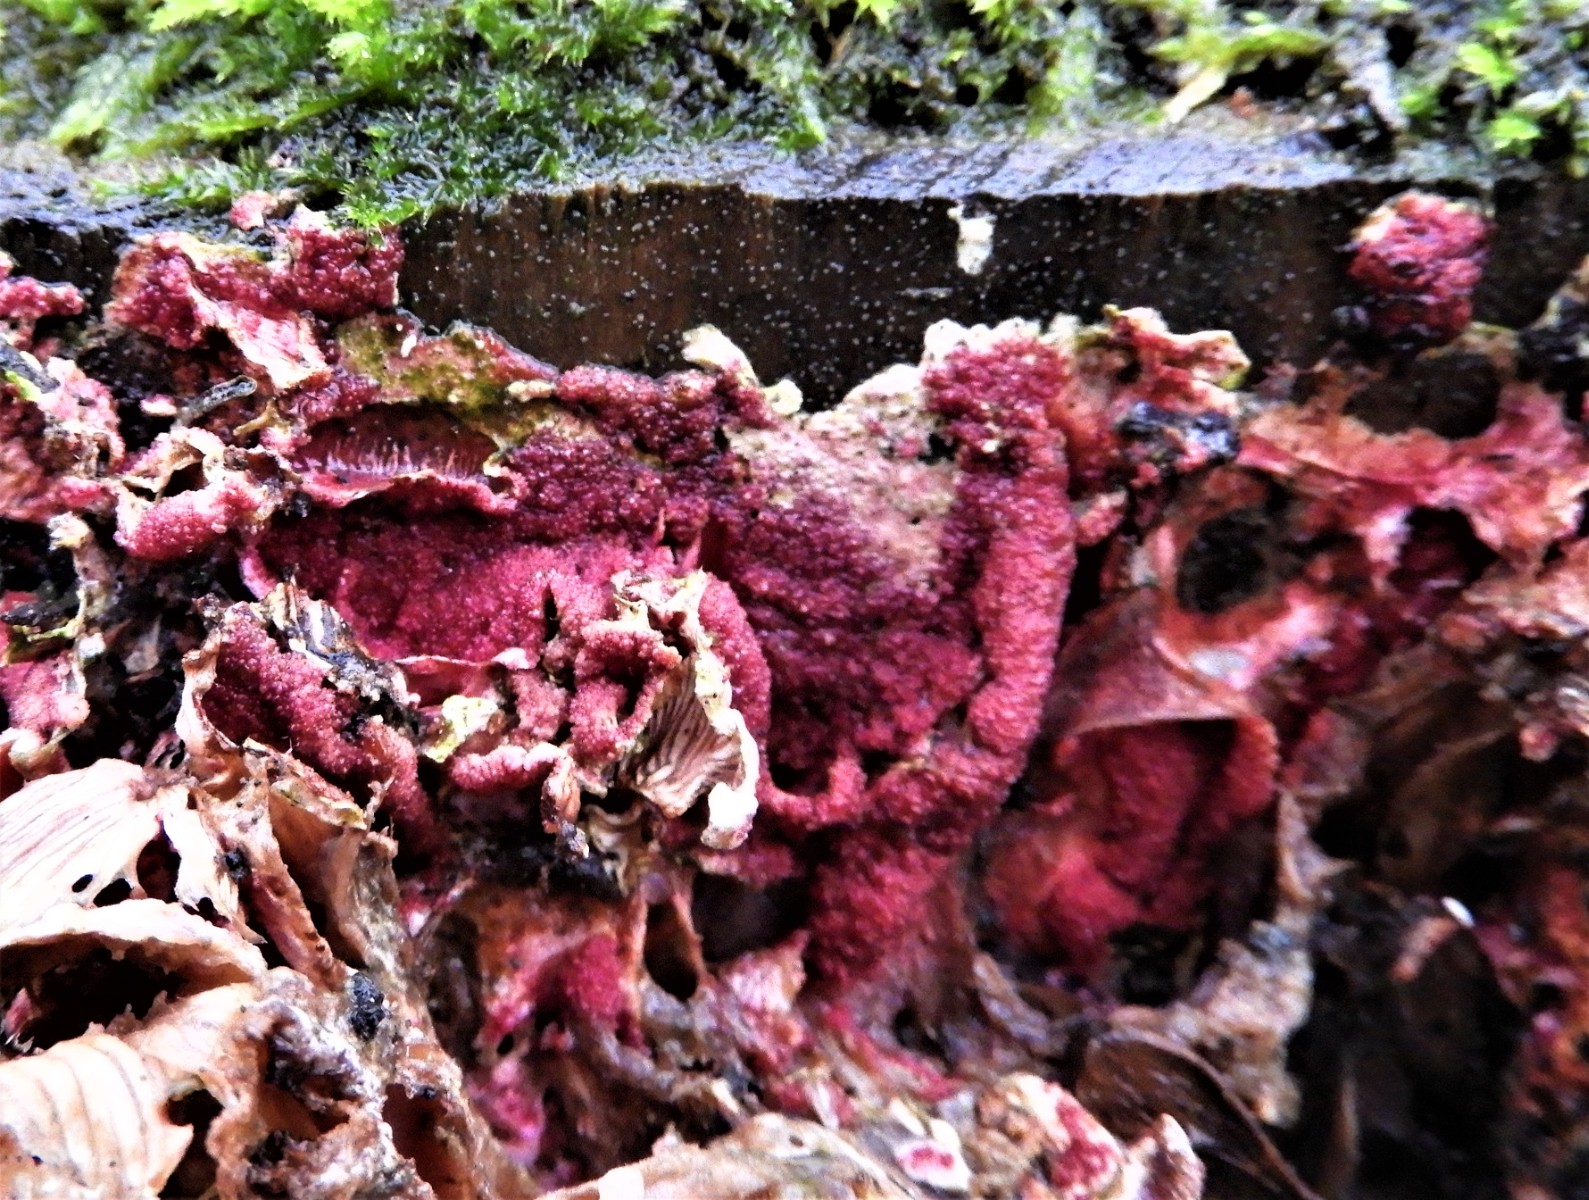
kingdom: Fungi
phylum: Ascomycota
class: Sordariomycetes
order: Hypocreales
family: Hypocreaceae
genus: Hypomyces
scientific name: Hypomyces rosellus
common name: rosa snylteskorpe
